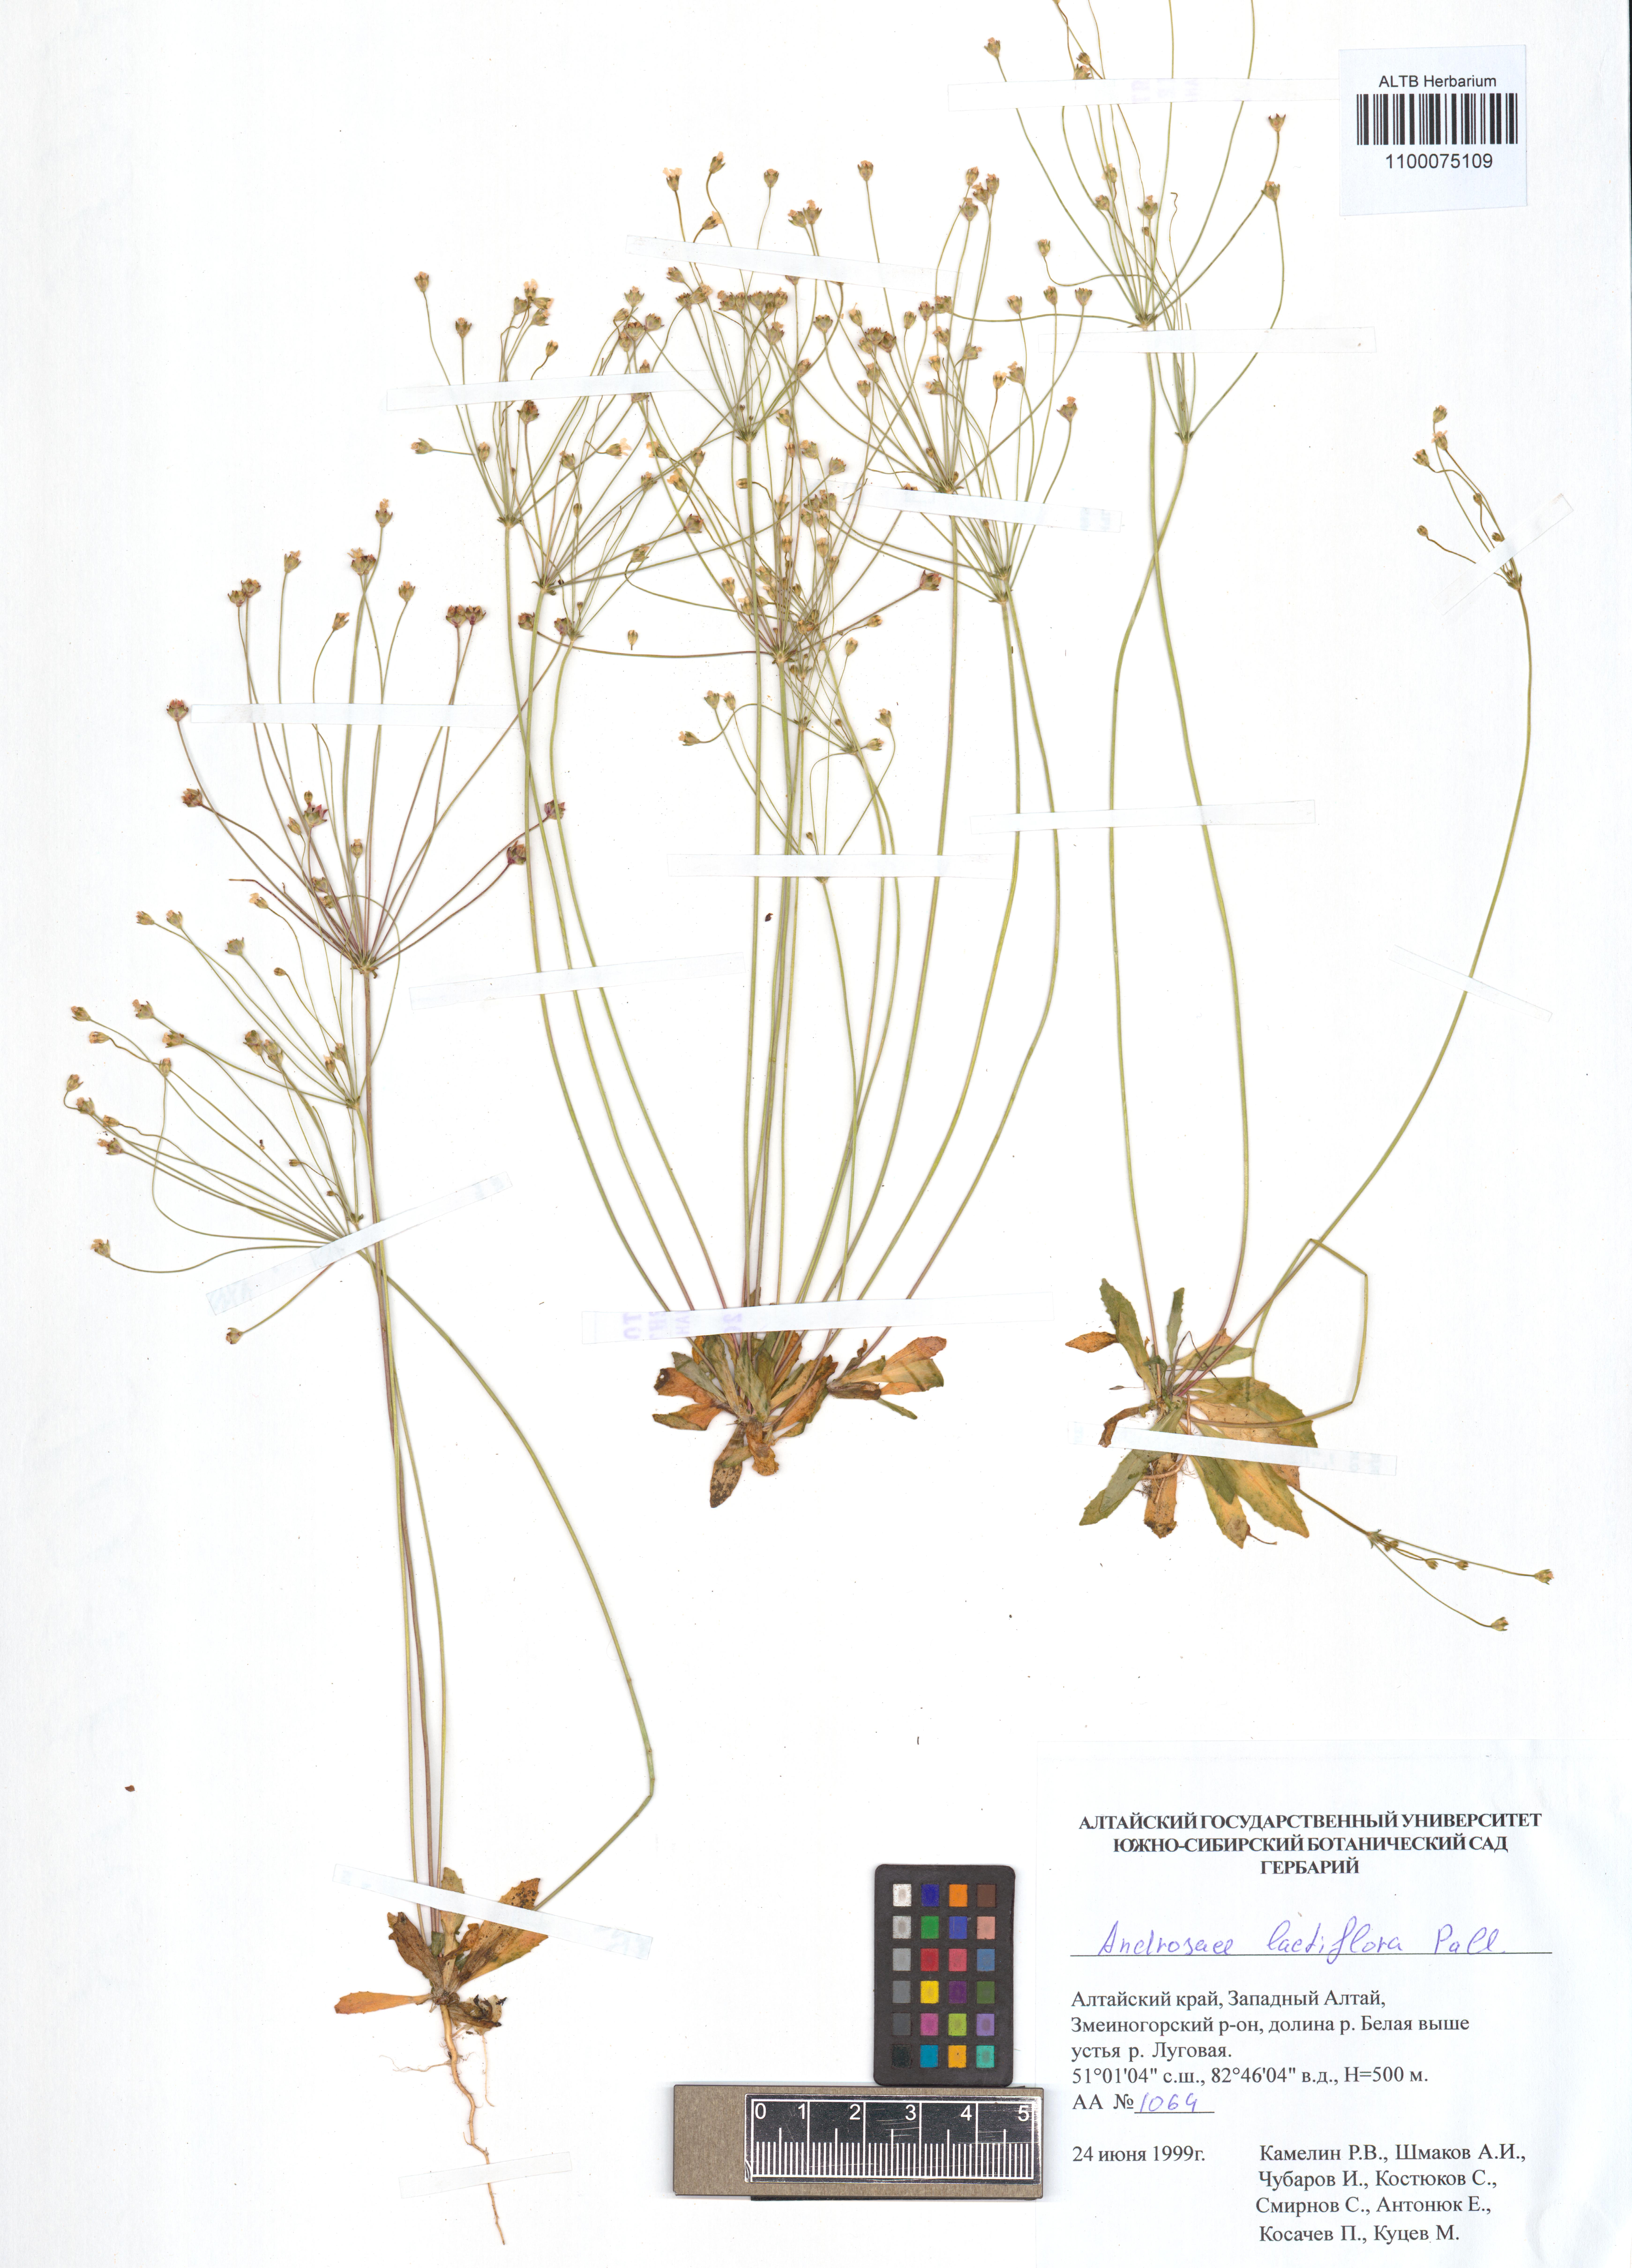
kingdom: Plantae
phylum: Tracheophyta
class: Magnoliopsida
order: Ericales
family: Primulaceae
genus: Androsace
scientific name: Androsace lactiflora
